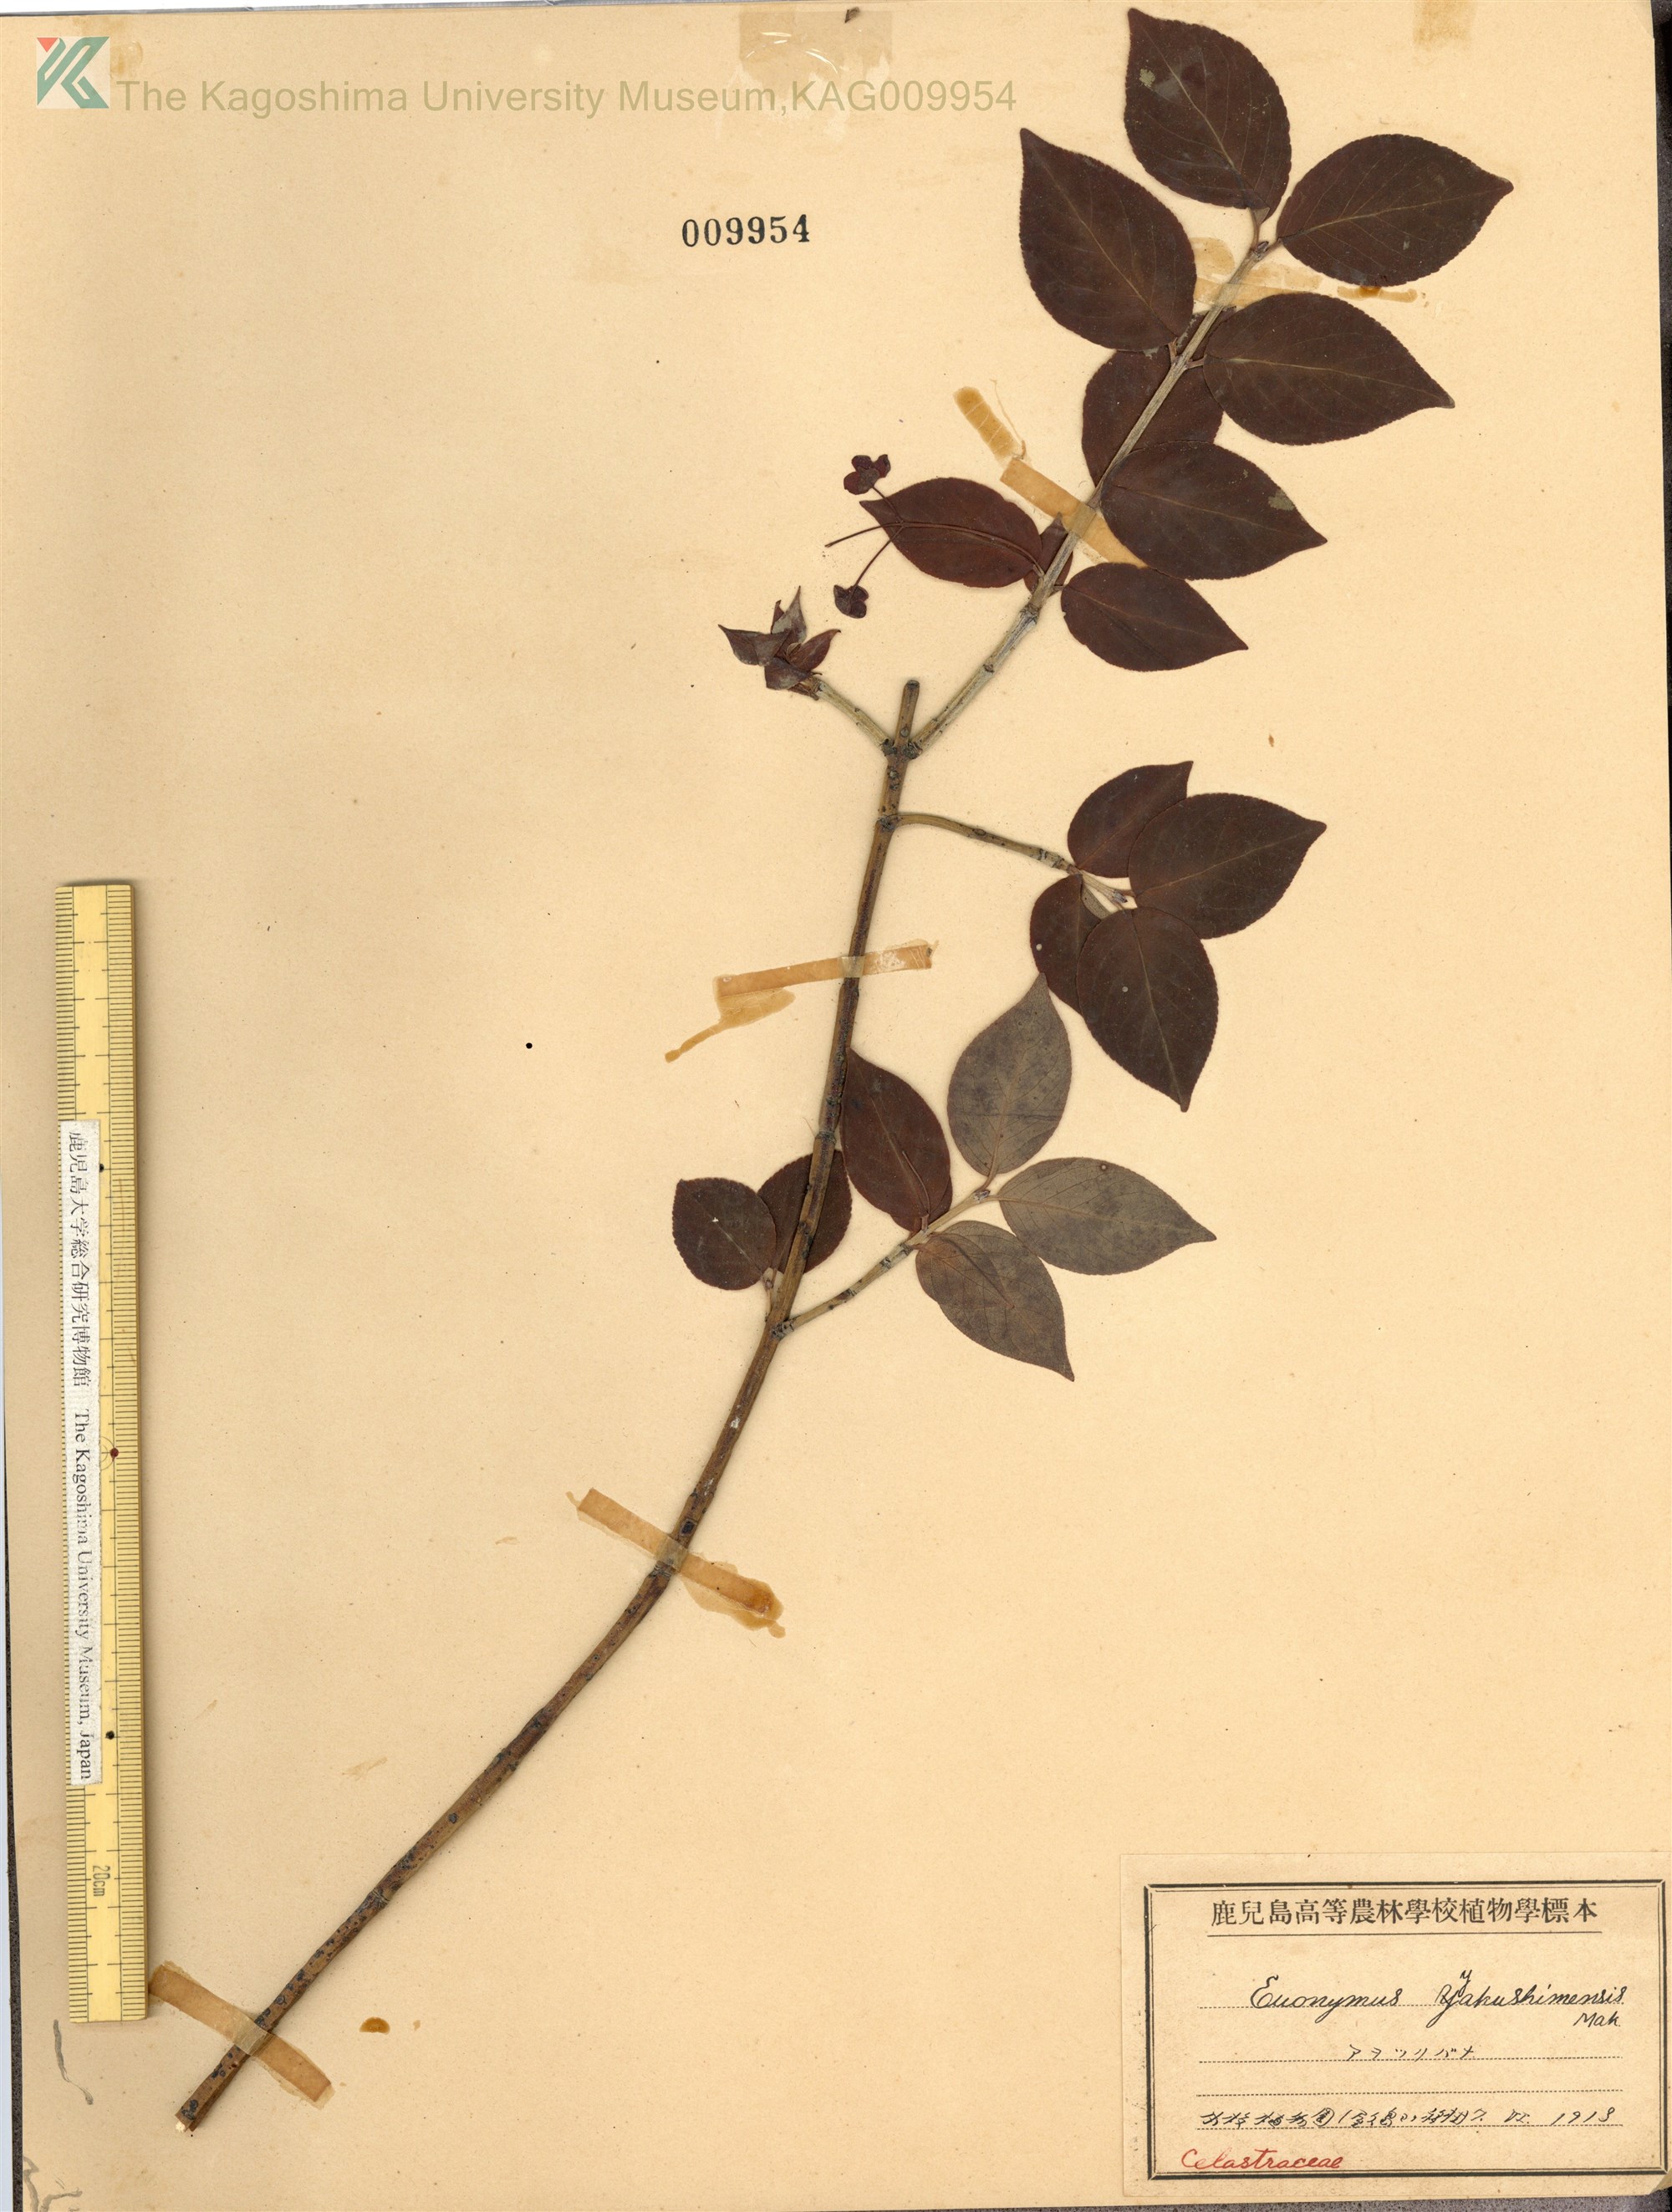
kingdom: Plantae
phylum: Tracheophyta
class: Magnoliopsida
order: Celastrales
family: Celastraceae
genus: Euonymus
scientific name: Euonymus yakushimensis
